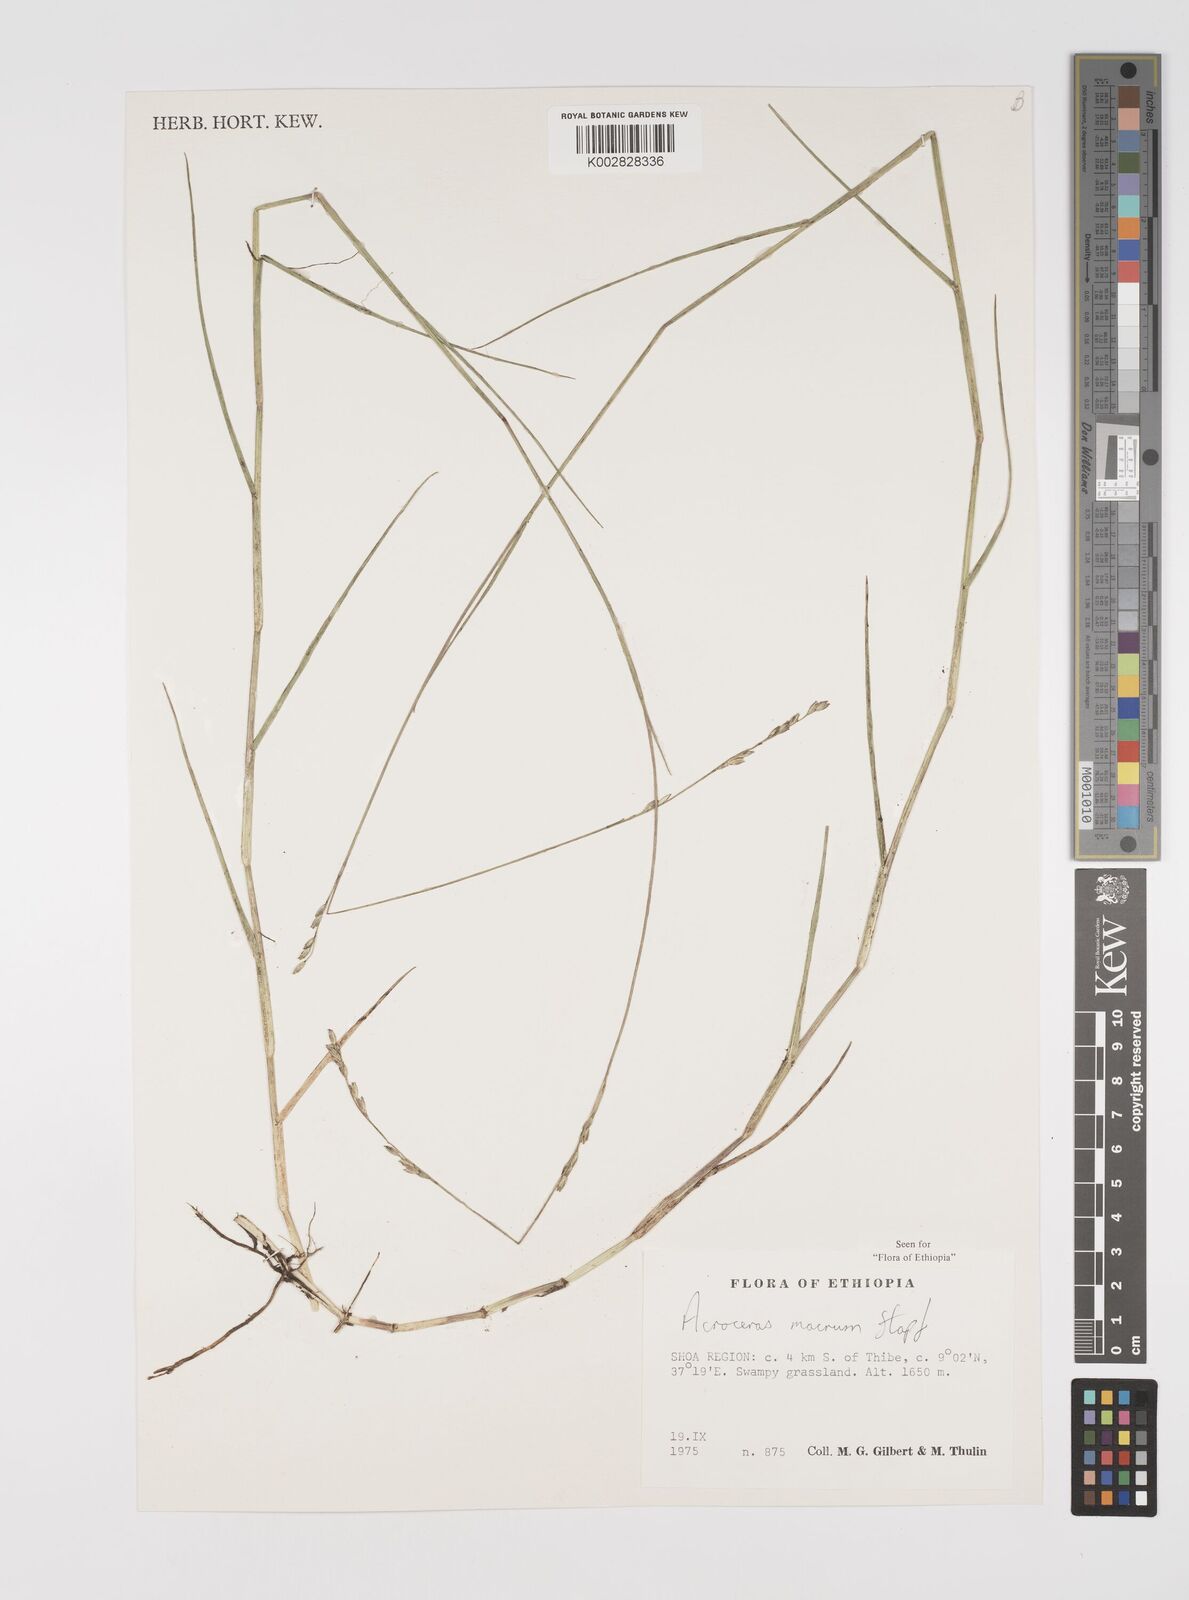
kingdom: Plantae
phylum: Tracheophyta
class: Liliopsida
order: Poales
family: Poaceae
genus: Acroceras
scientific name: Acroceras macrum
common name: Nyl grass
